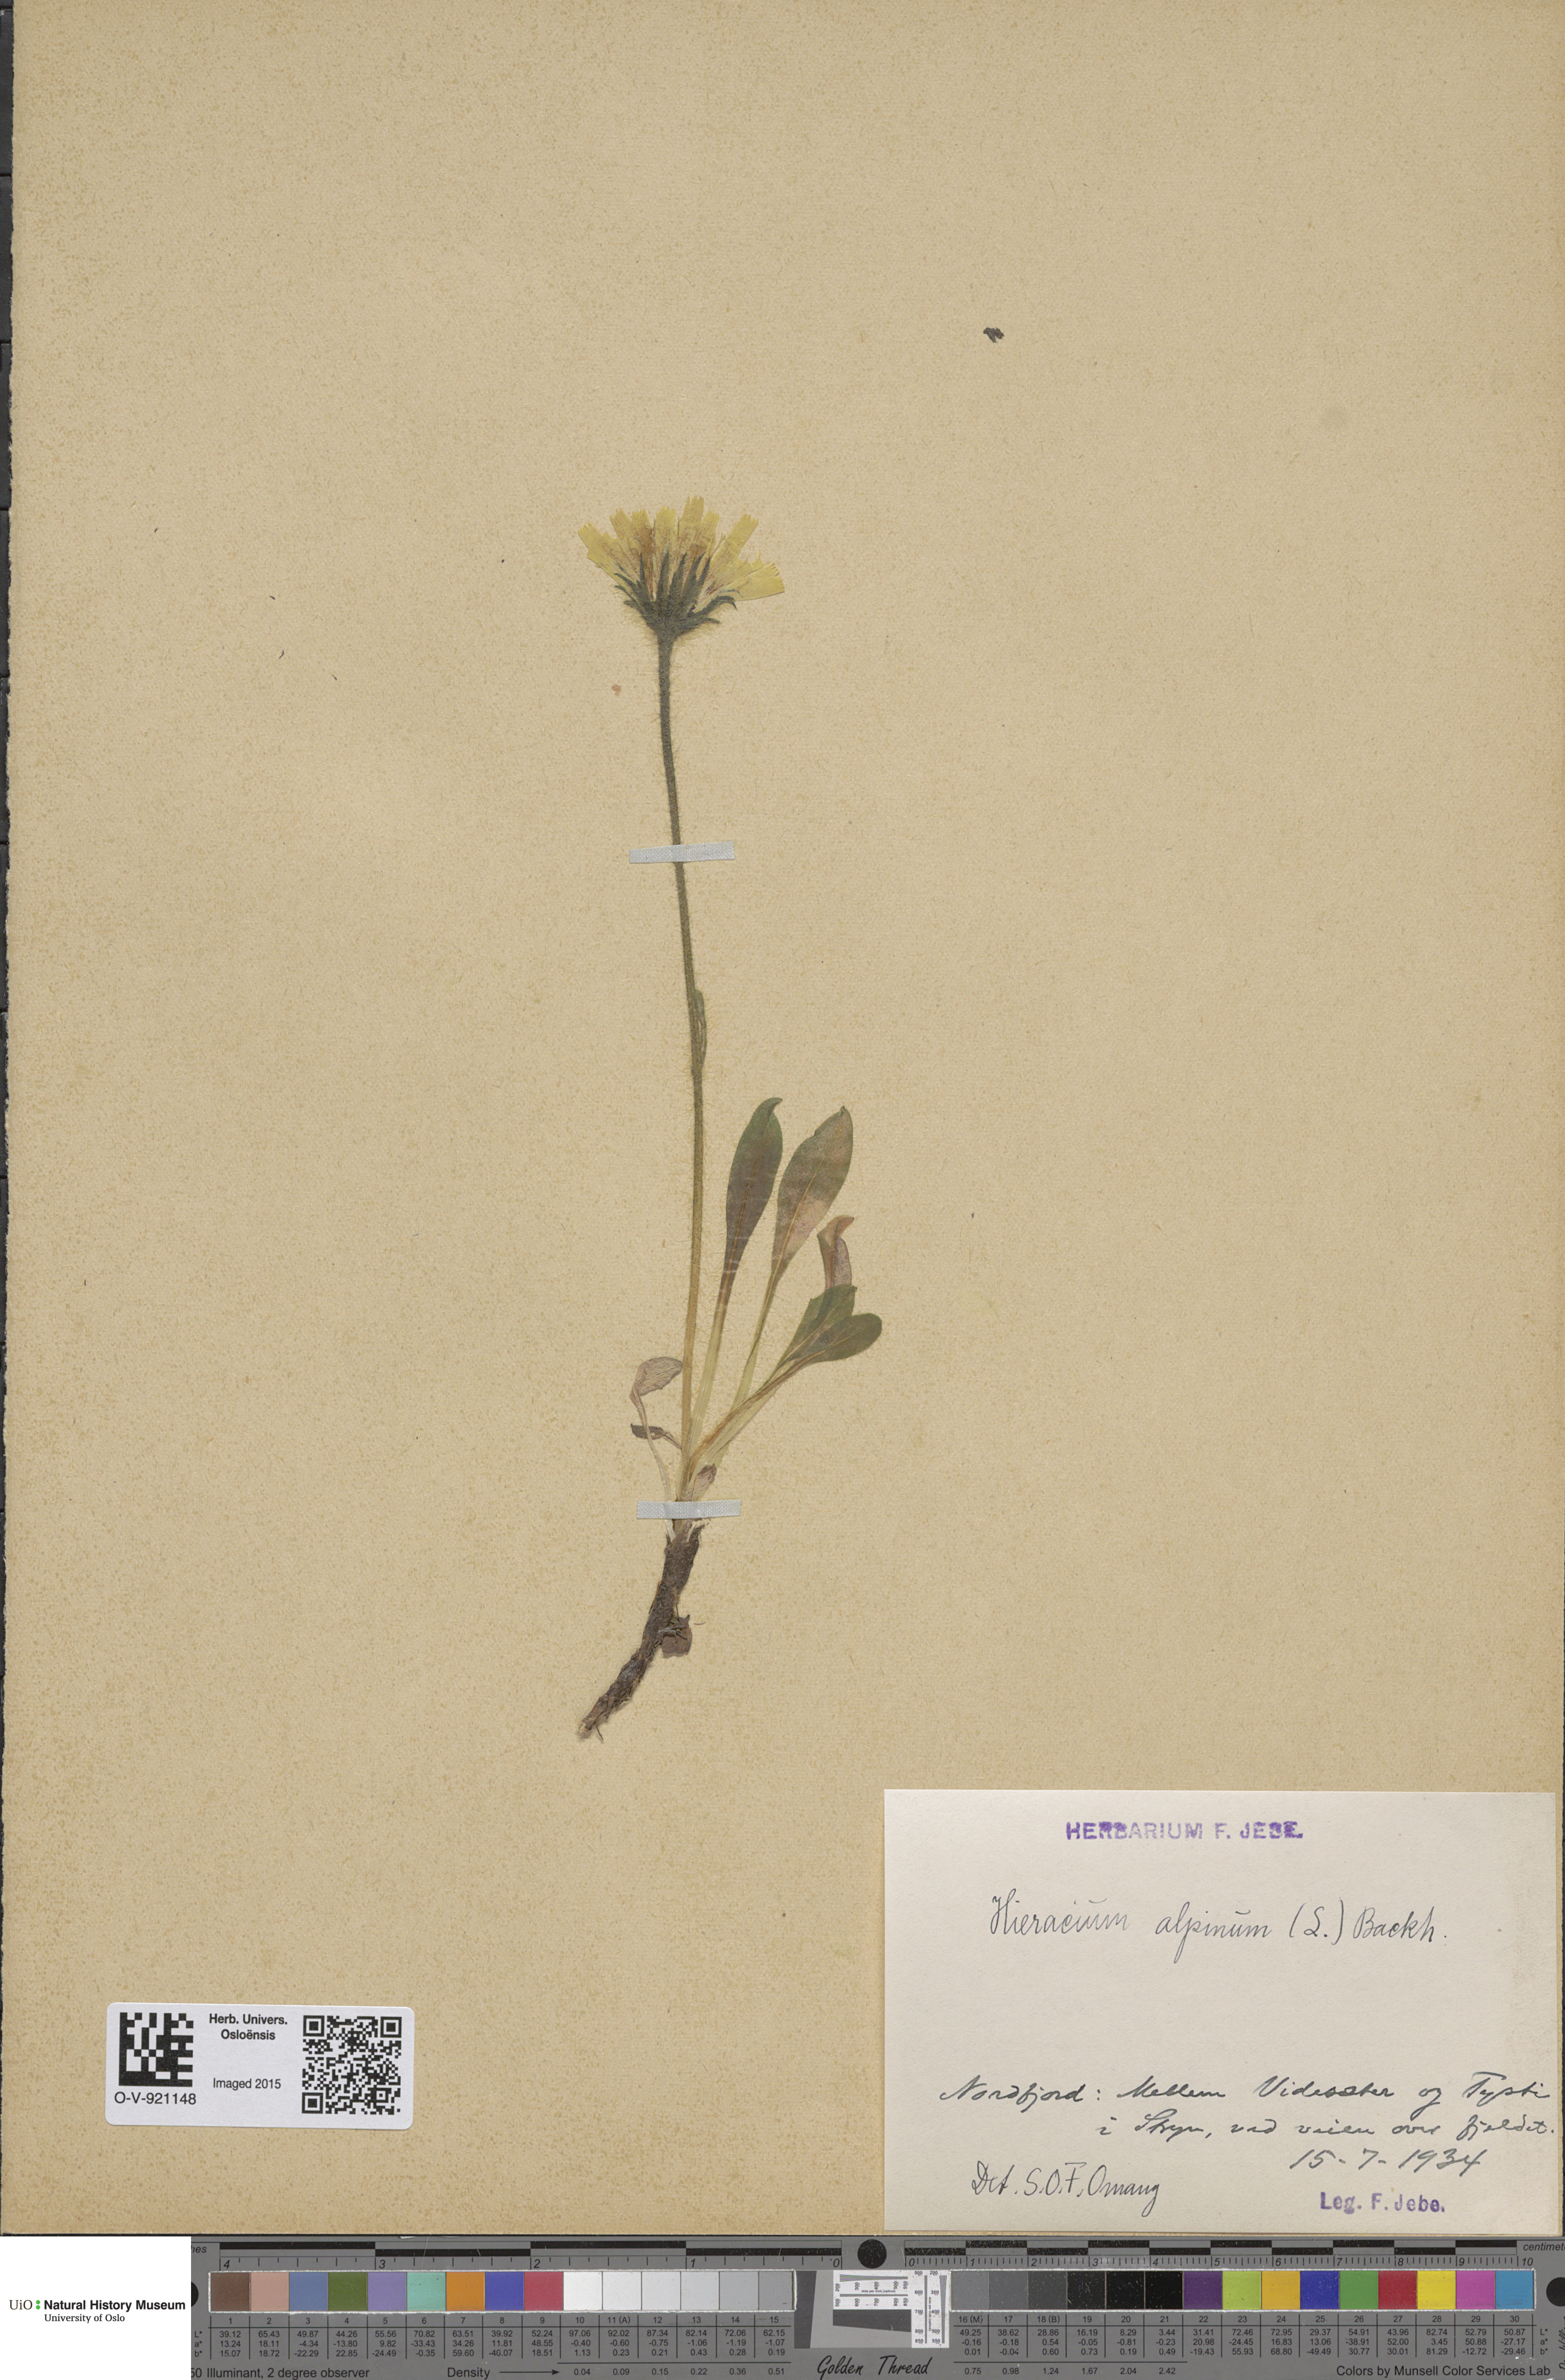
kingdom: Plantae
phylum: Tracheophyta
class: Magnoliopsida
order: Asterales
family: Asteraceae
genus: Hieracium
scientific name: Hieracium alpinum
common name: Alpine hawkweed
